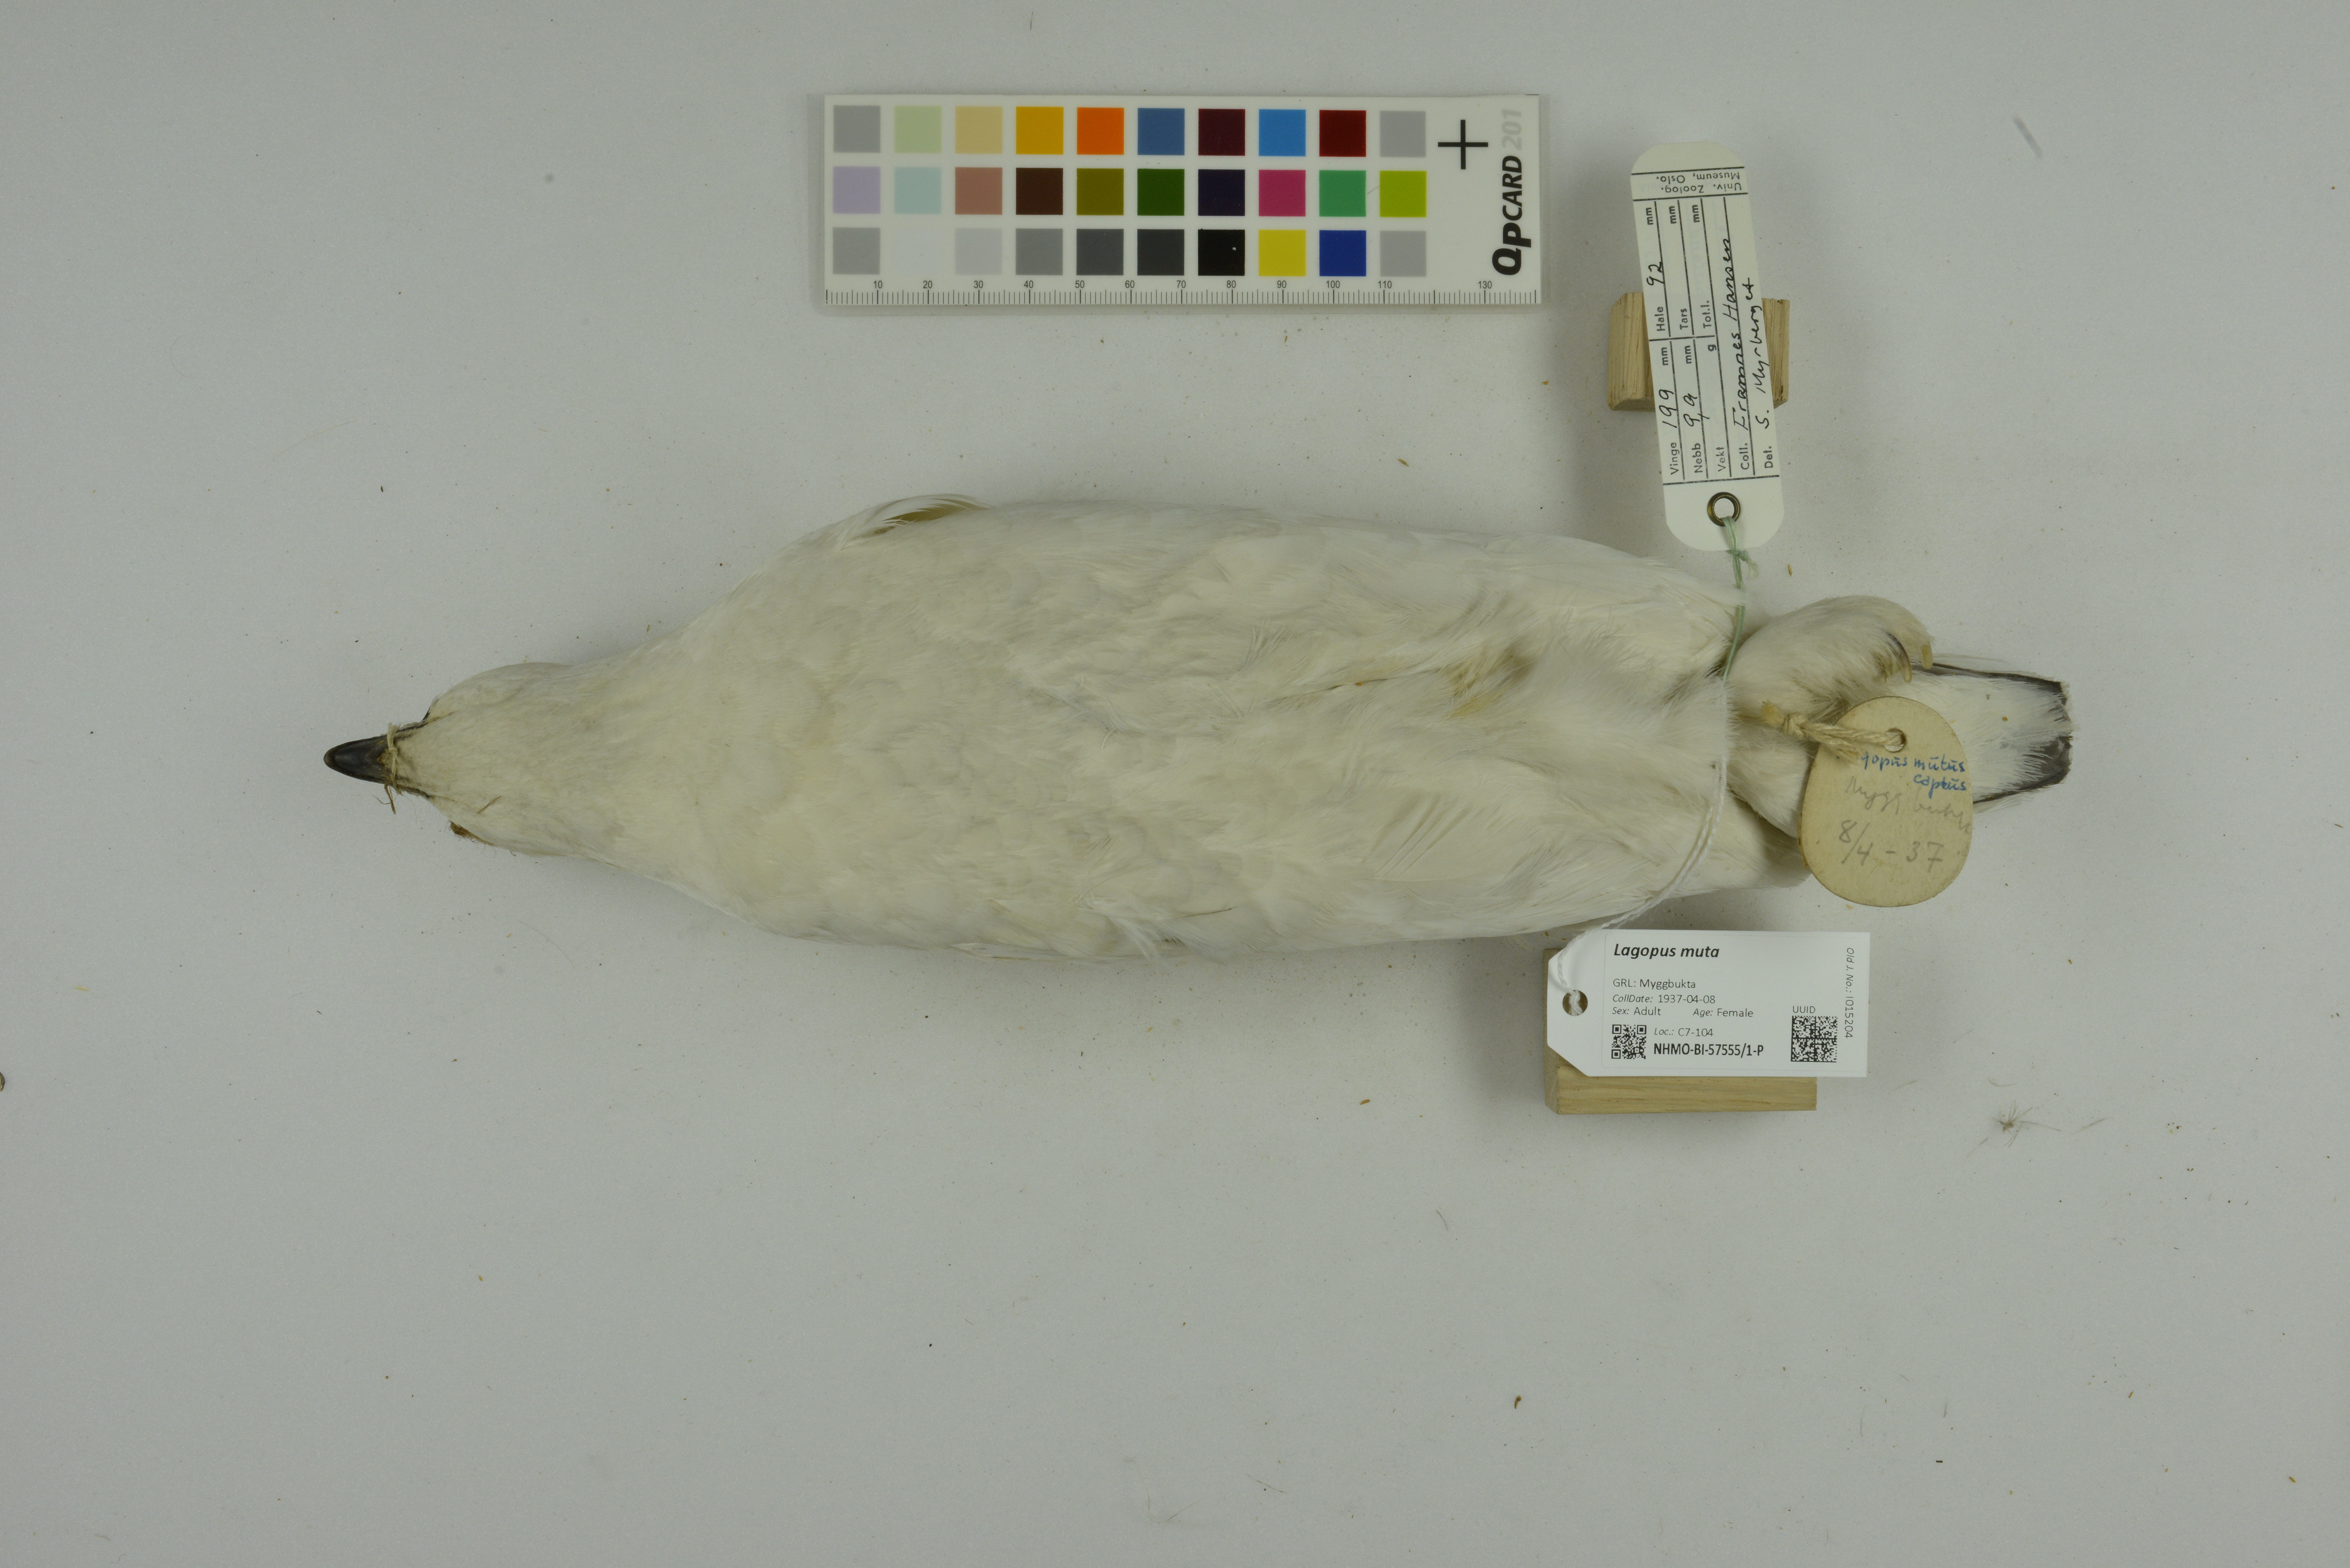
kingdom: Animalia
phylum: Chordata
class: Aves
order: Galliformes
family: Phasianidae
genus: Lagopus
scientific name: Lagopus muta
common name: Rock ptarmigan
